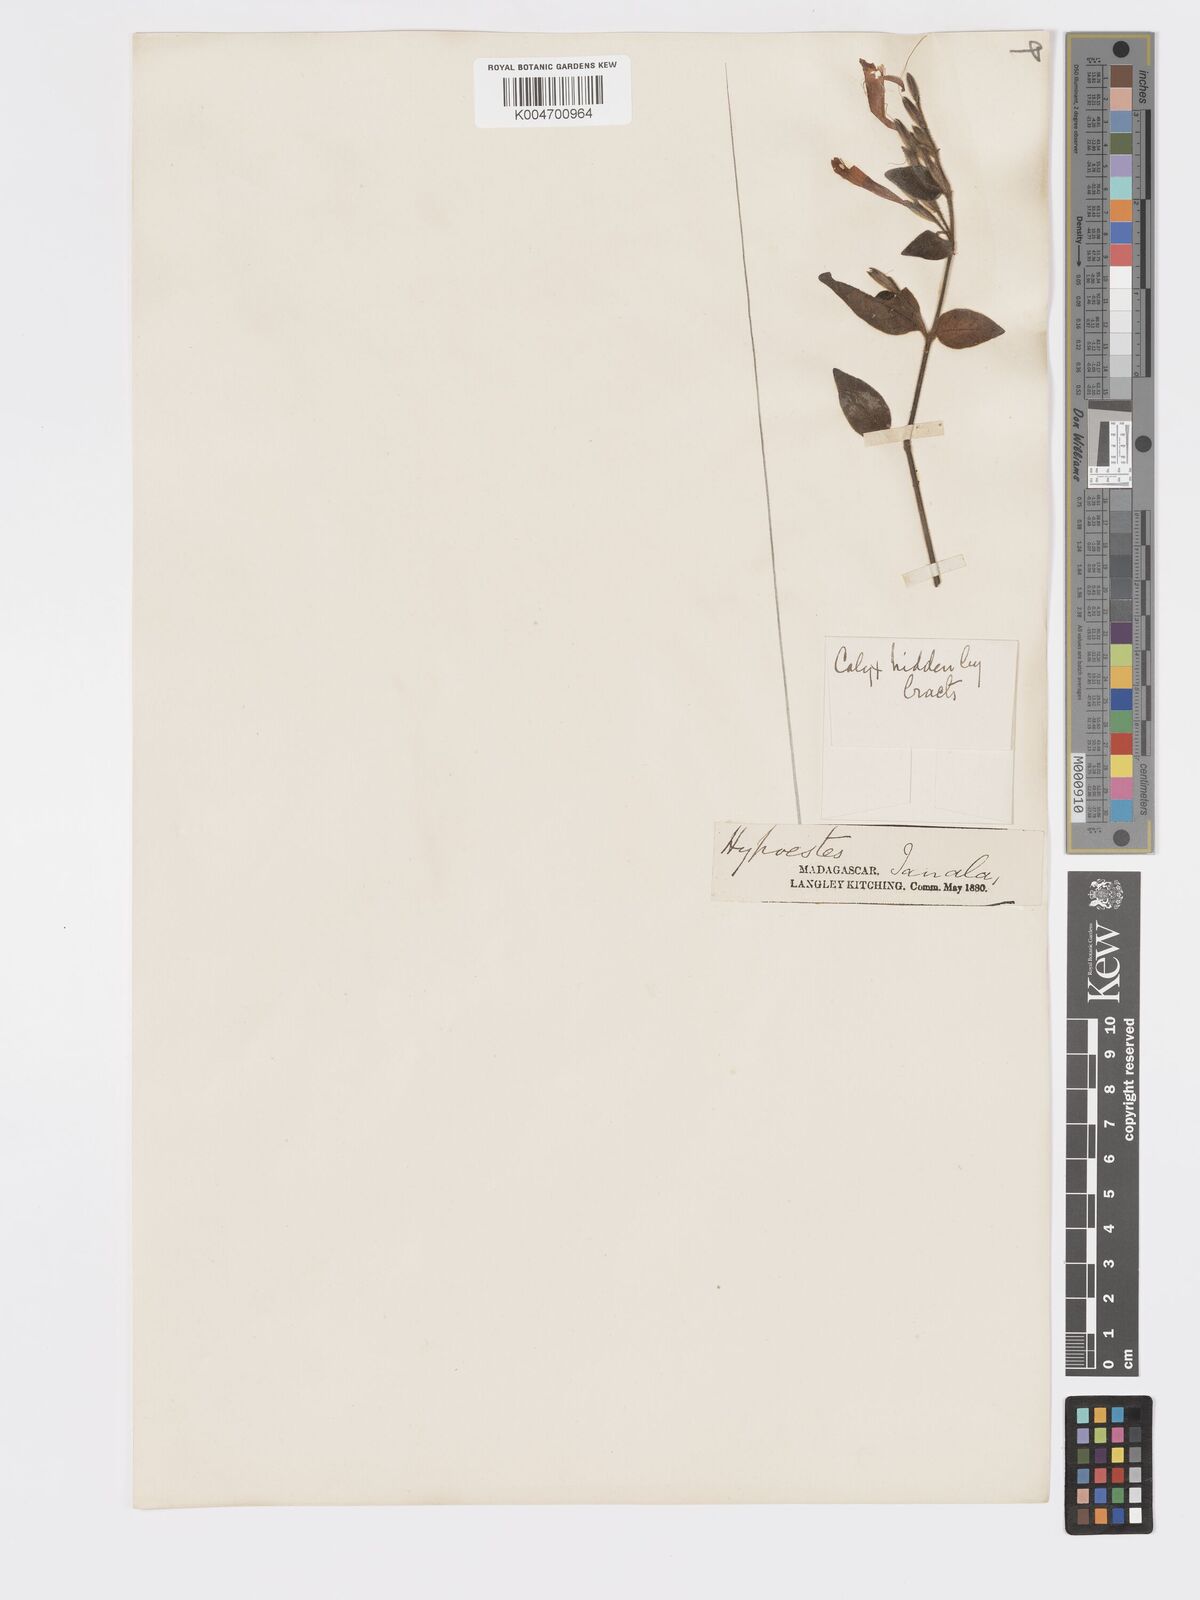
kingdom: Plantae
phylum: Tracheophyta
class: Magnoliopsida
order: Lamiales
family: Acanthaceae
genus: Hypoestes
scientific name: Hypoestes
